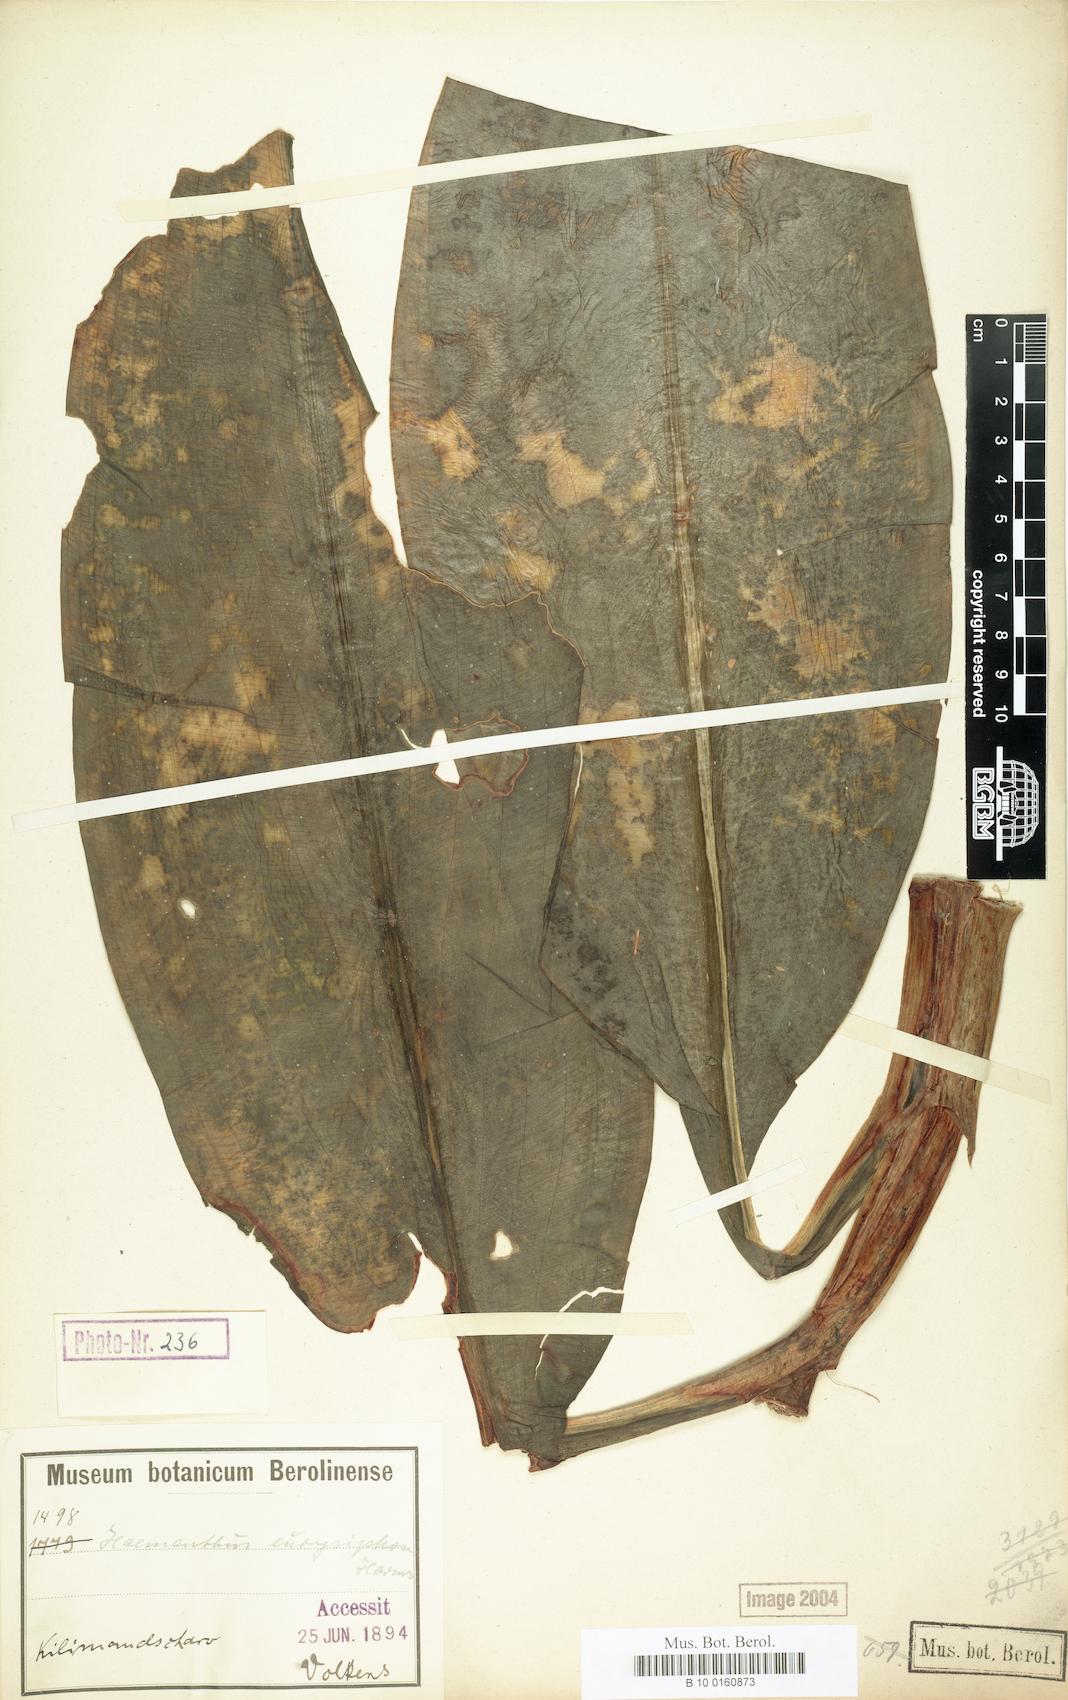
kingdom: Plantae
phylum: Tracheophyta
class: Liliopsida
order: Asparagales
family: Amaryllidaceae
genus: Scadoxus
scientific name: Scadoxus multiflorus
